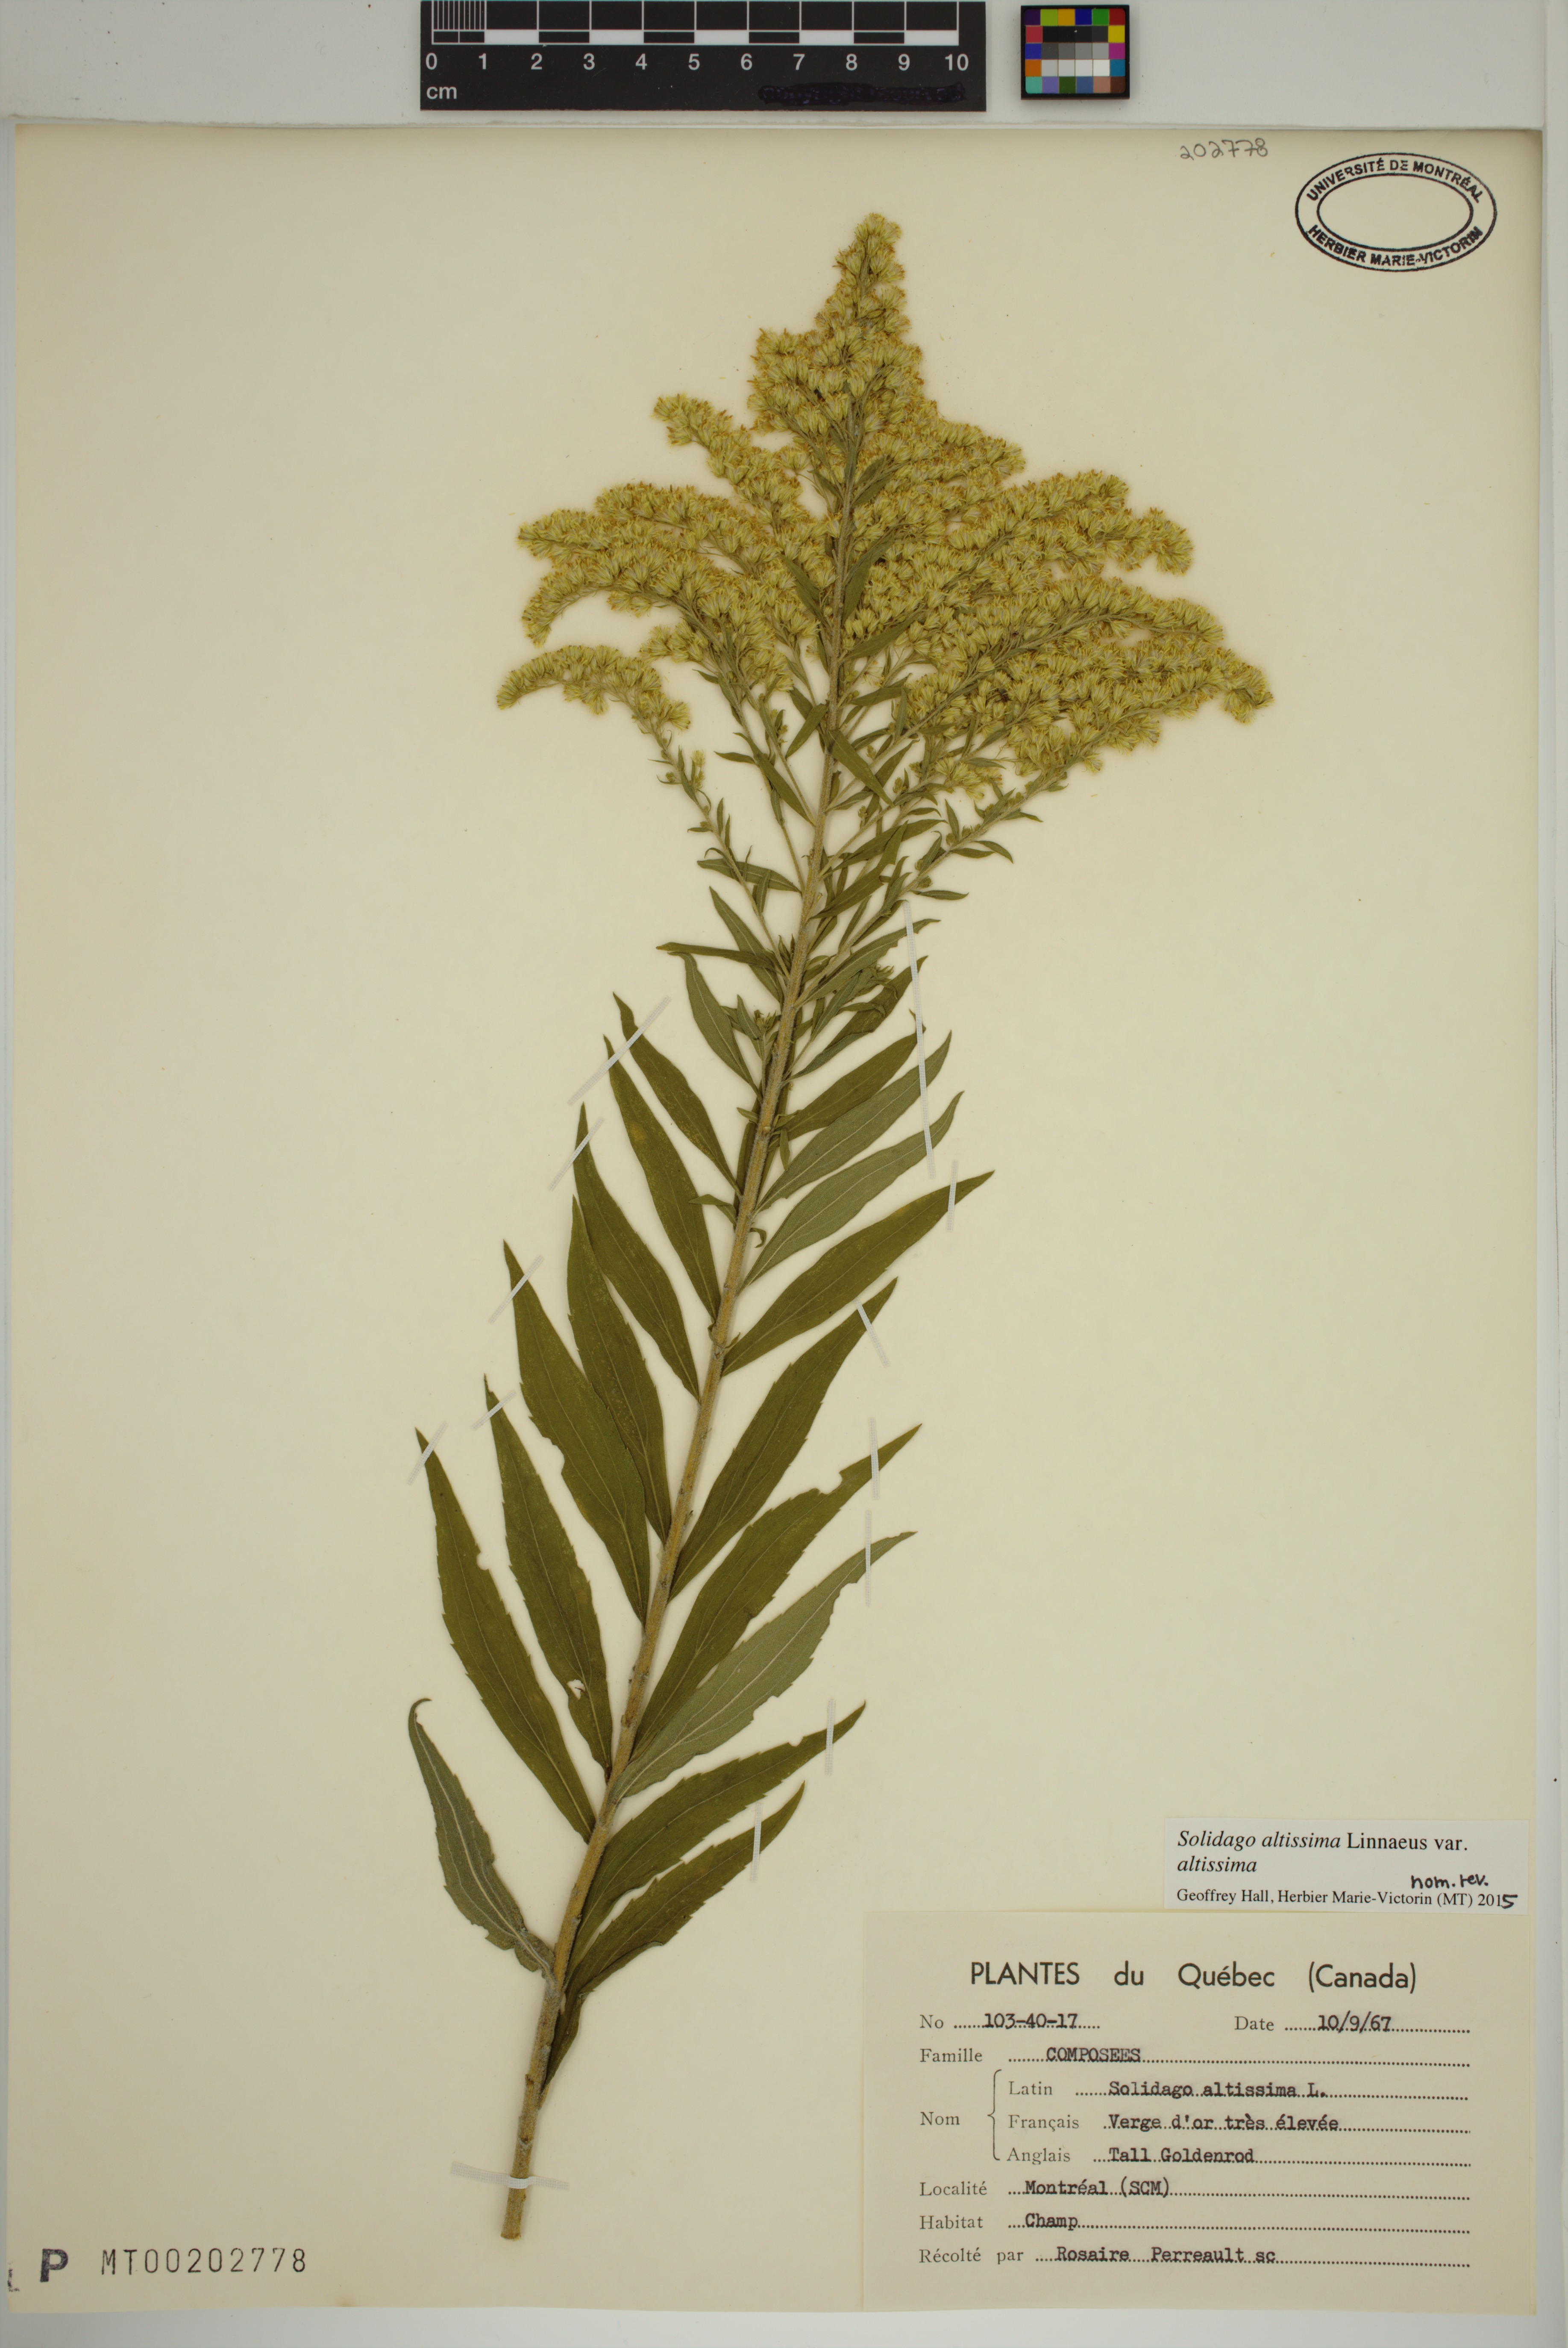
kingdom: Plantae
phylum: Tracheophyta
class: Magnoliopsida
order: Asterales
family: Asteraceae
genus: Solidago
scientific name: Solidago altissima
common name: Late goldenrod
